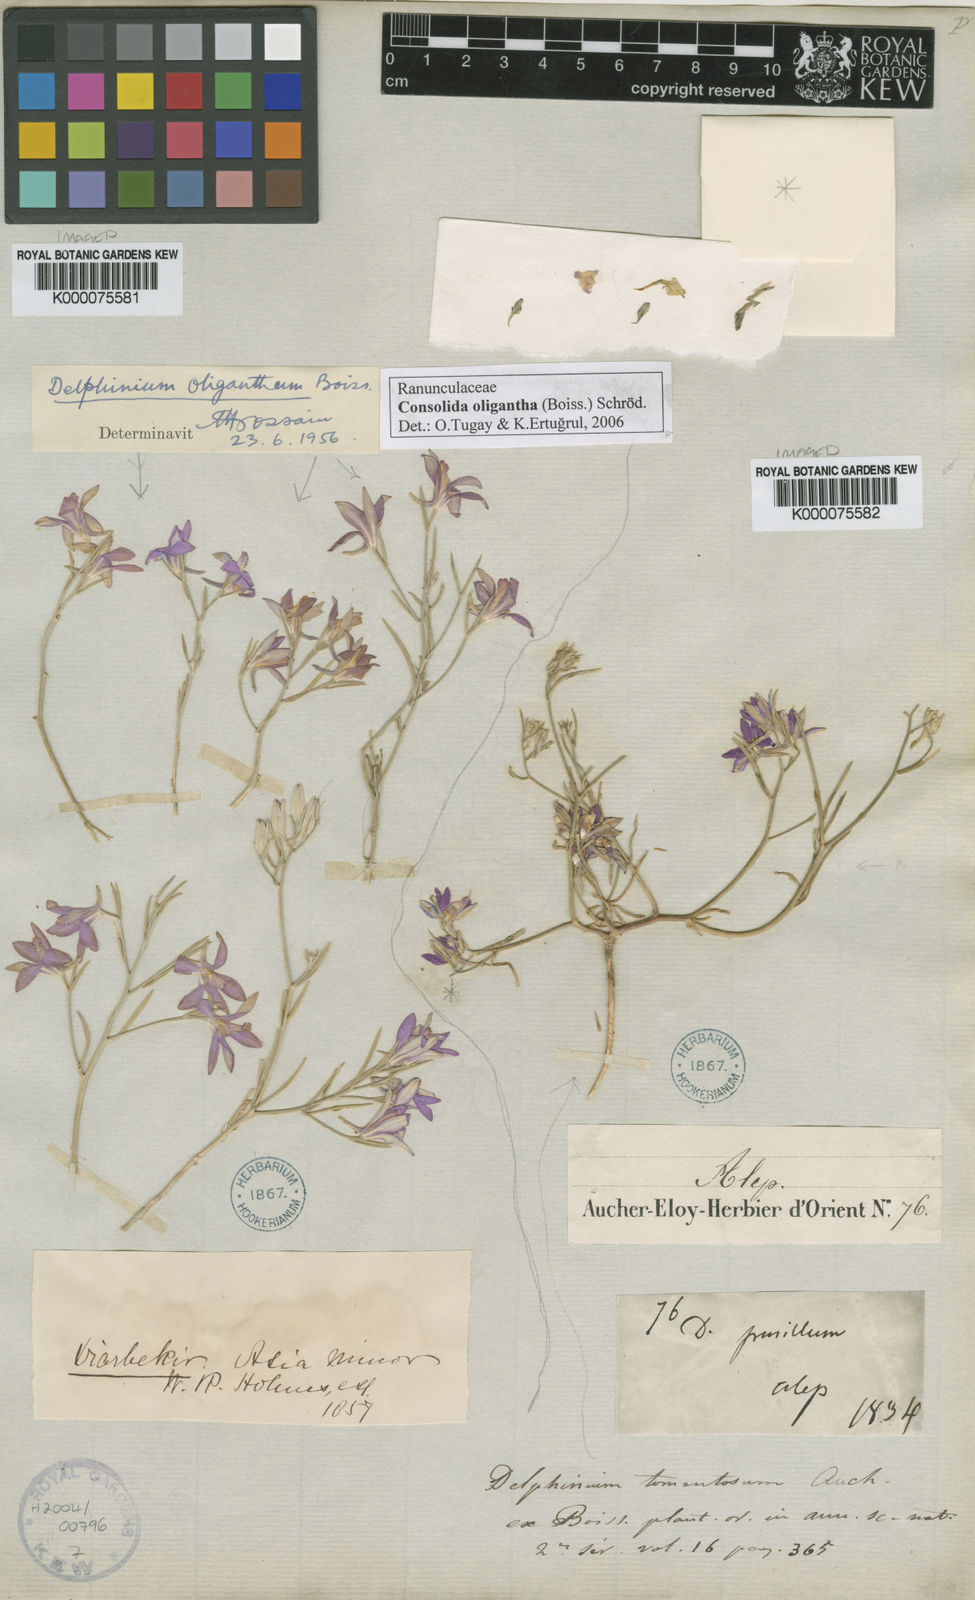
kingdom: Plantae
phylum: Tracheophyta
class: Magnoliopsida
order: Ranunculales
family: Ranunculaceae
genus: Delphinium
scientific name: Delphinium tomentosum
